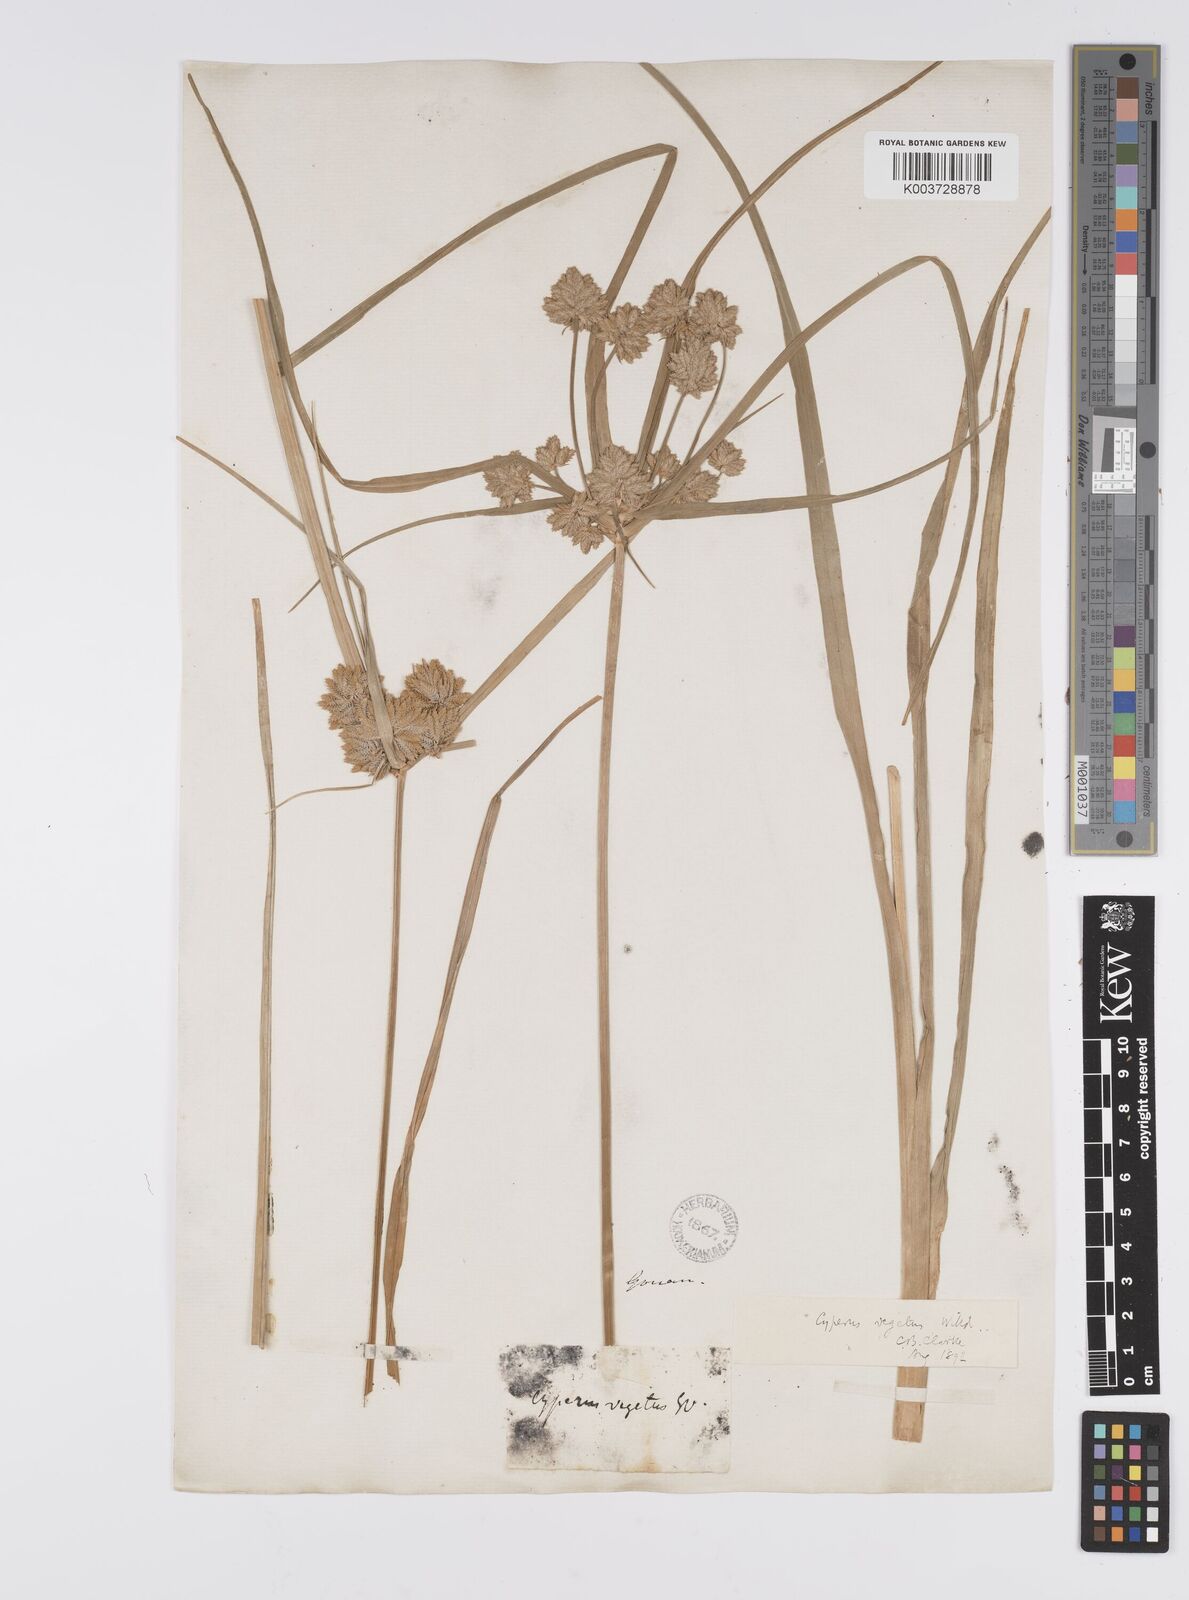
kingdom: Plantae
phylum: Tracheophyta
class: Liliopsida
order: Poales
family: Cyperaceae
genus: Cyperus
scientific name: Cyperus eragrostis
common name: Tall flatsedge
